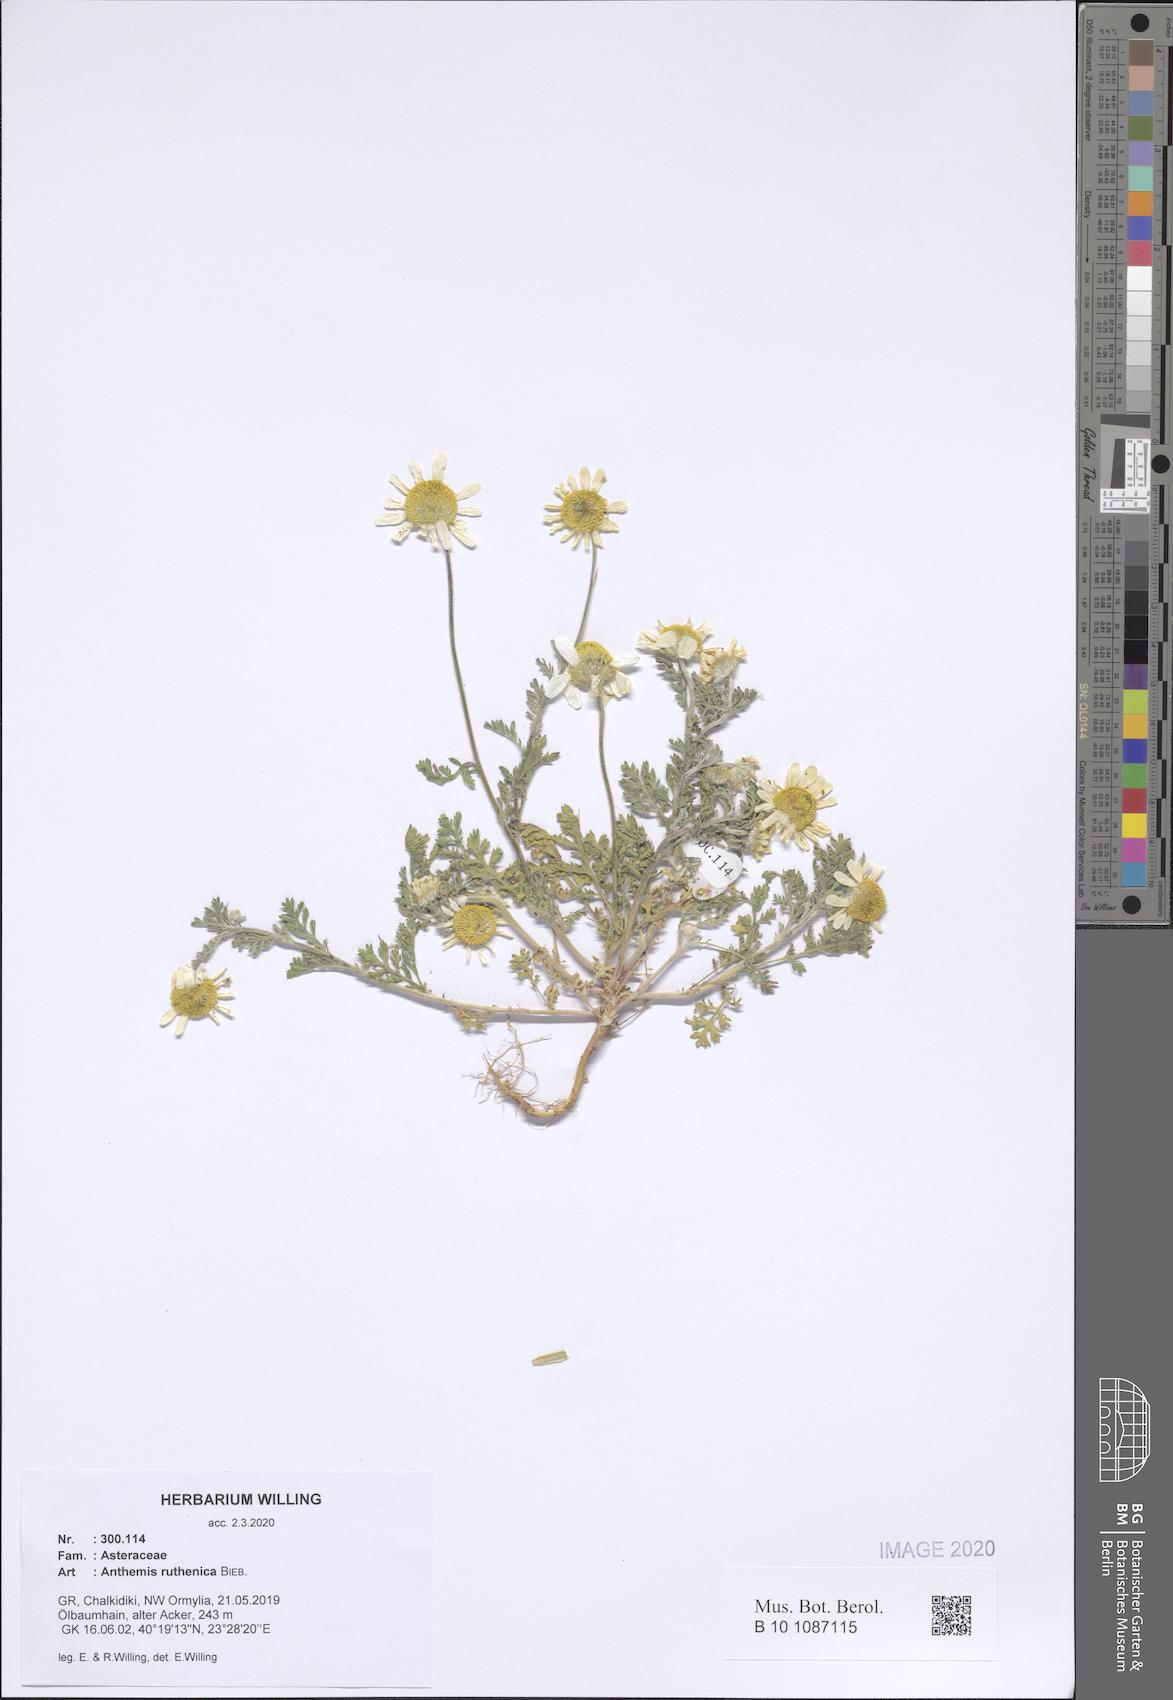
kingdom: Plantae
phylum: Tracheophyta
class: Magnoliopsida
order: Asterales
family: Asteraceae
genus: Anthemis
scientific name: Anthemis ruthenica
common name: Eastern chamomile
